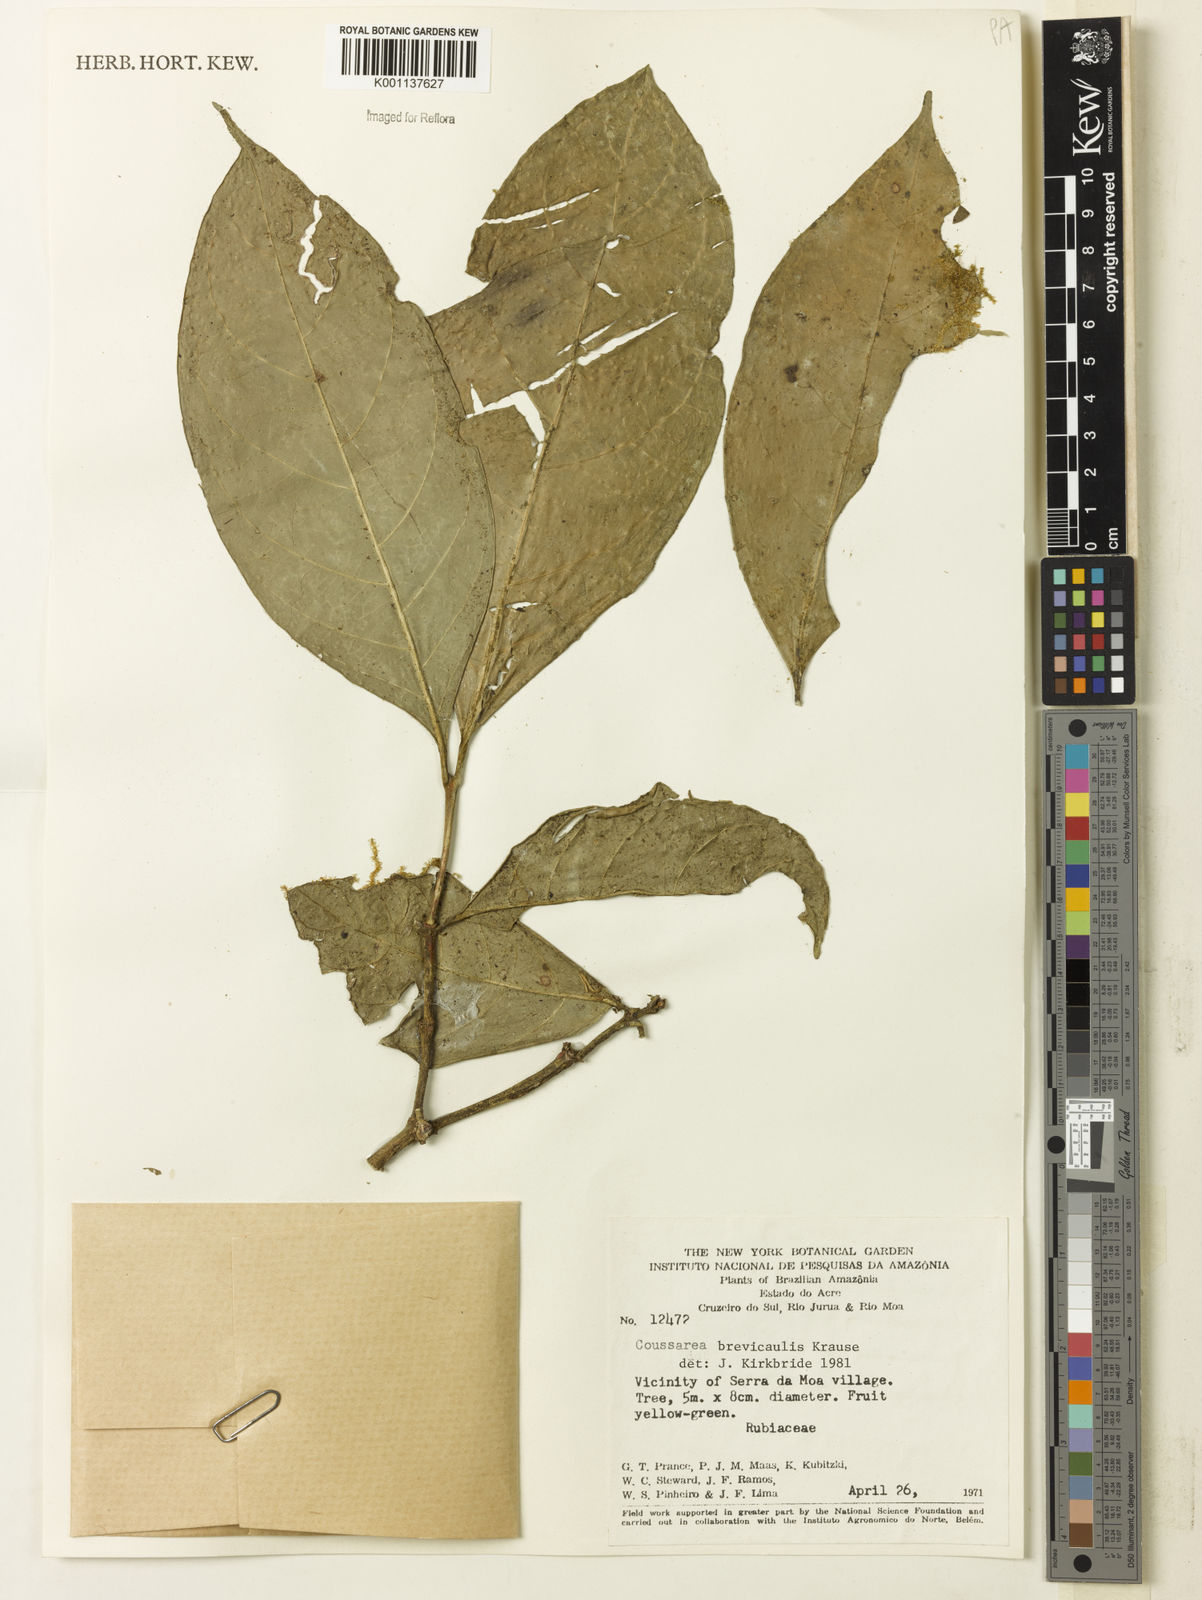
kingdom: Plantae
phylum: Tracheophyta
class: Magnoliopsida
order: Gentianales
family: Rubiaceae
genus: Coussarea
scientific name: Coussarea brevicaulis
